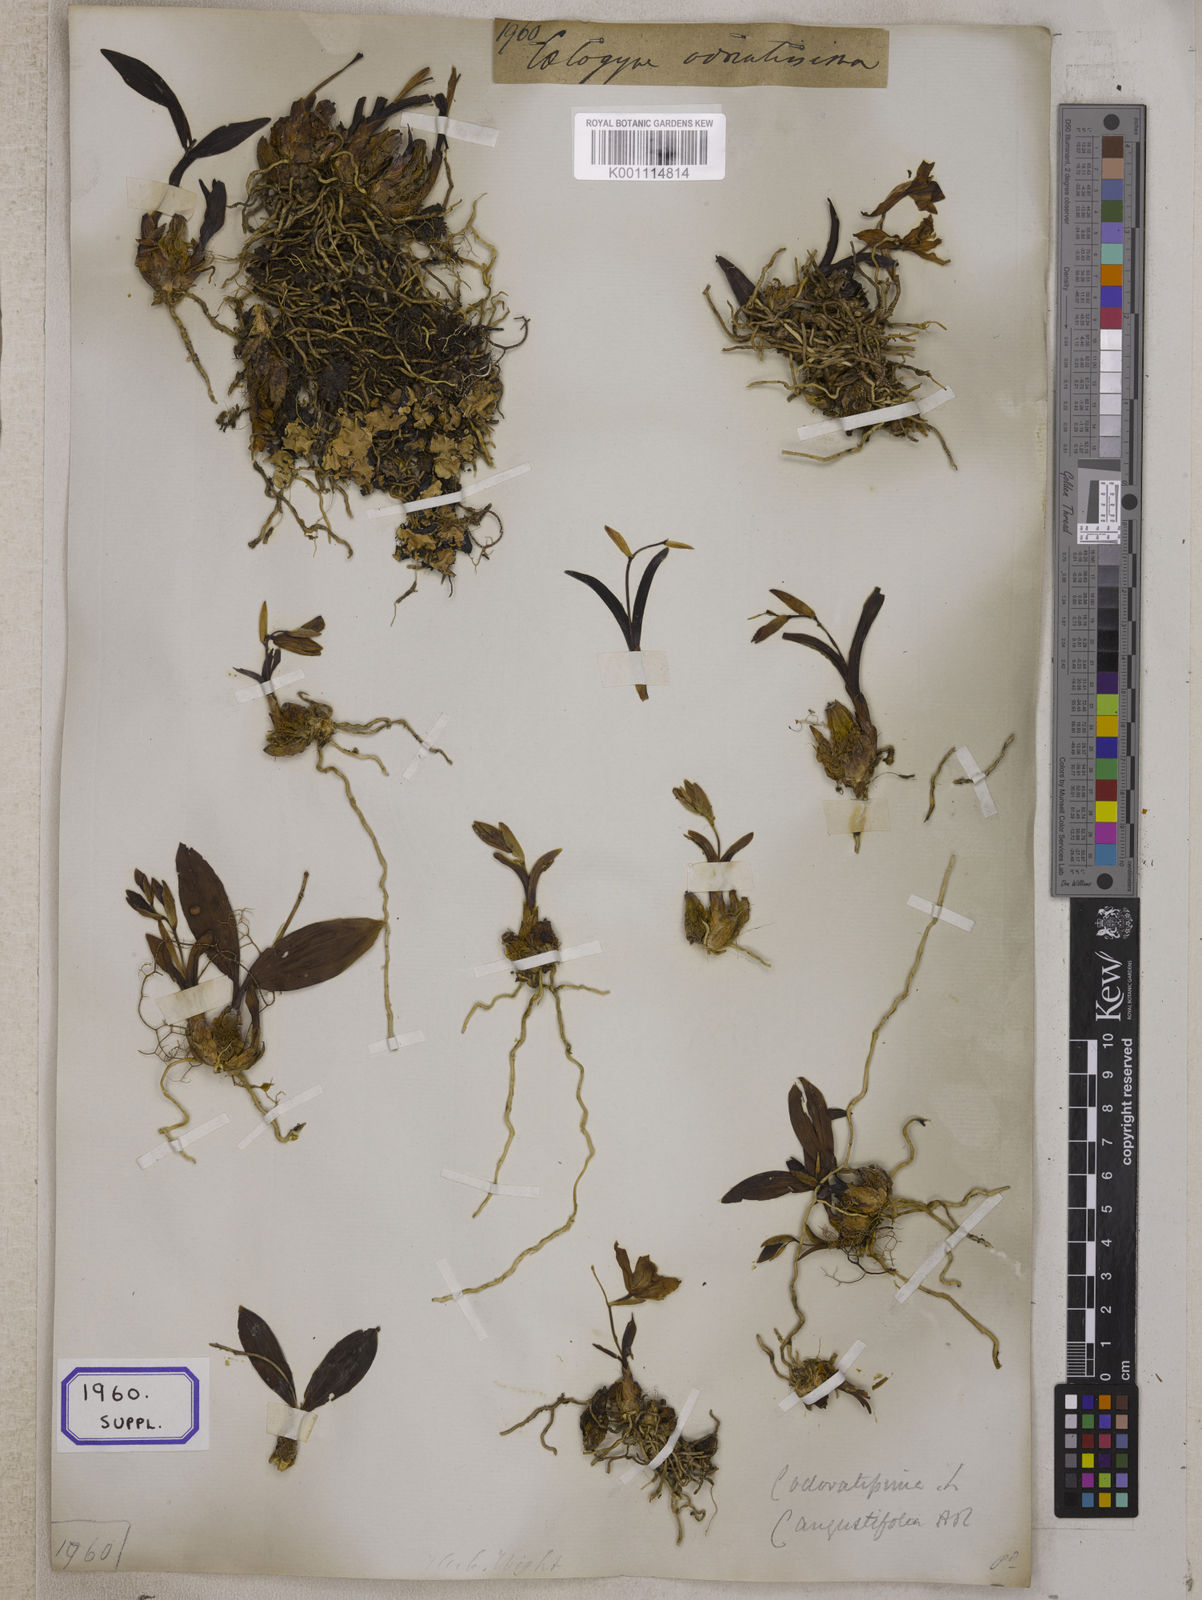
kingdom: Plantae
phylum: Tracheophyta
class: Liliopsida
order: Asparagales
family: Orchidaceae
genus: Coelogyne
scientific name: Coelogyne odoratissima
